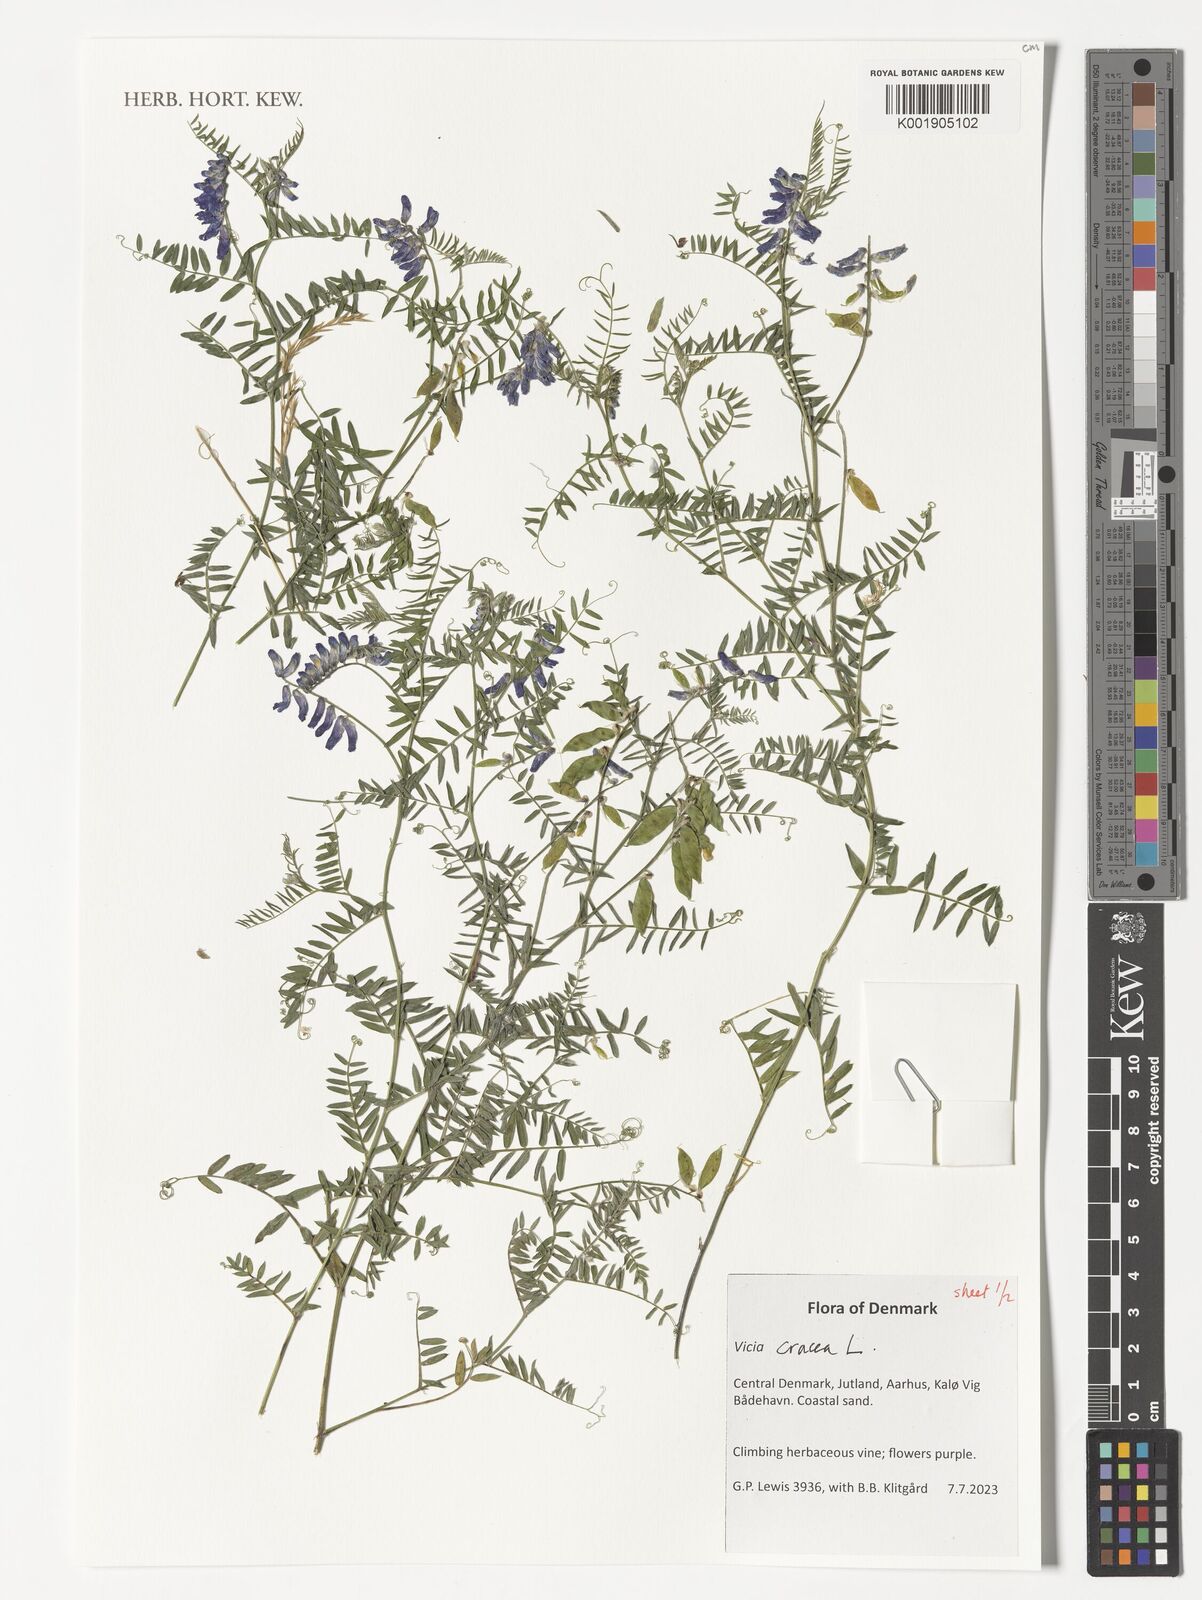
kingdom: Plantae
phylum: Tracheophyta
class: Magnoliopsida
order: Fabales
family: Fabaceae
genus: Vicia
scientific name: Vicia cracca
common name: Bird vetch
